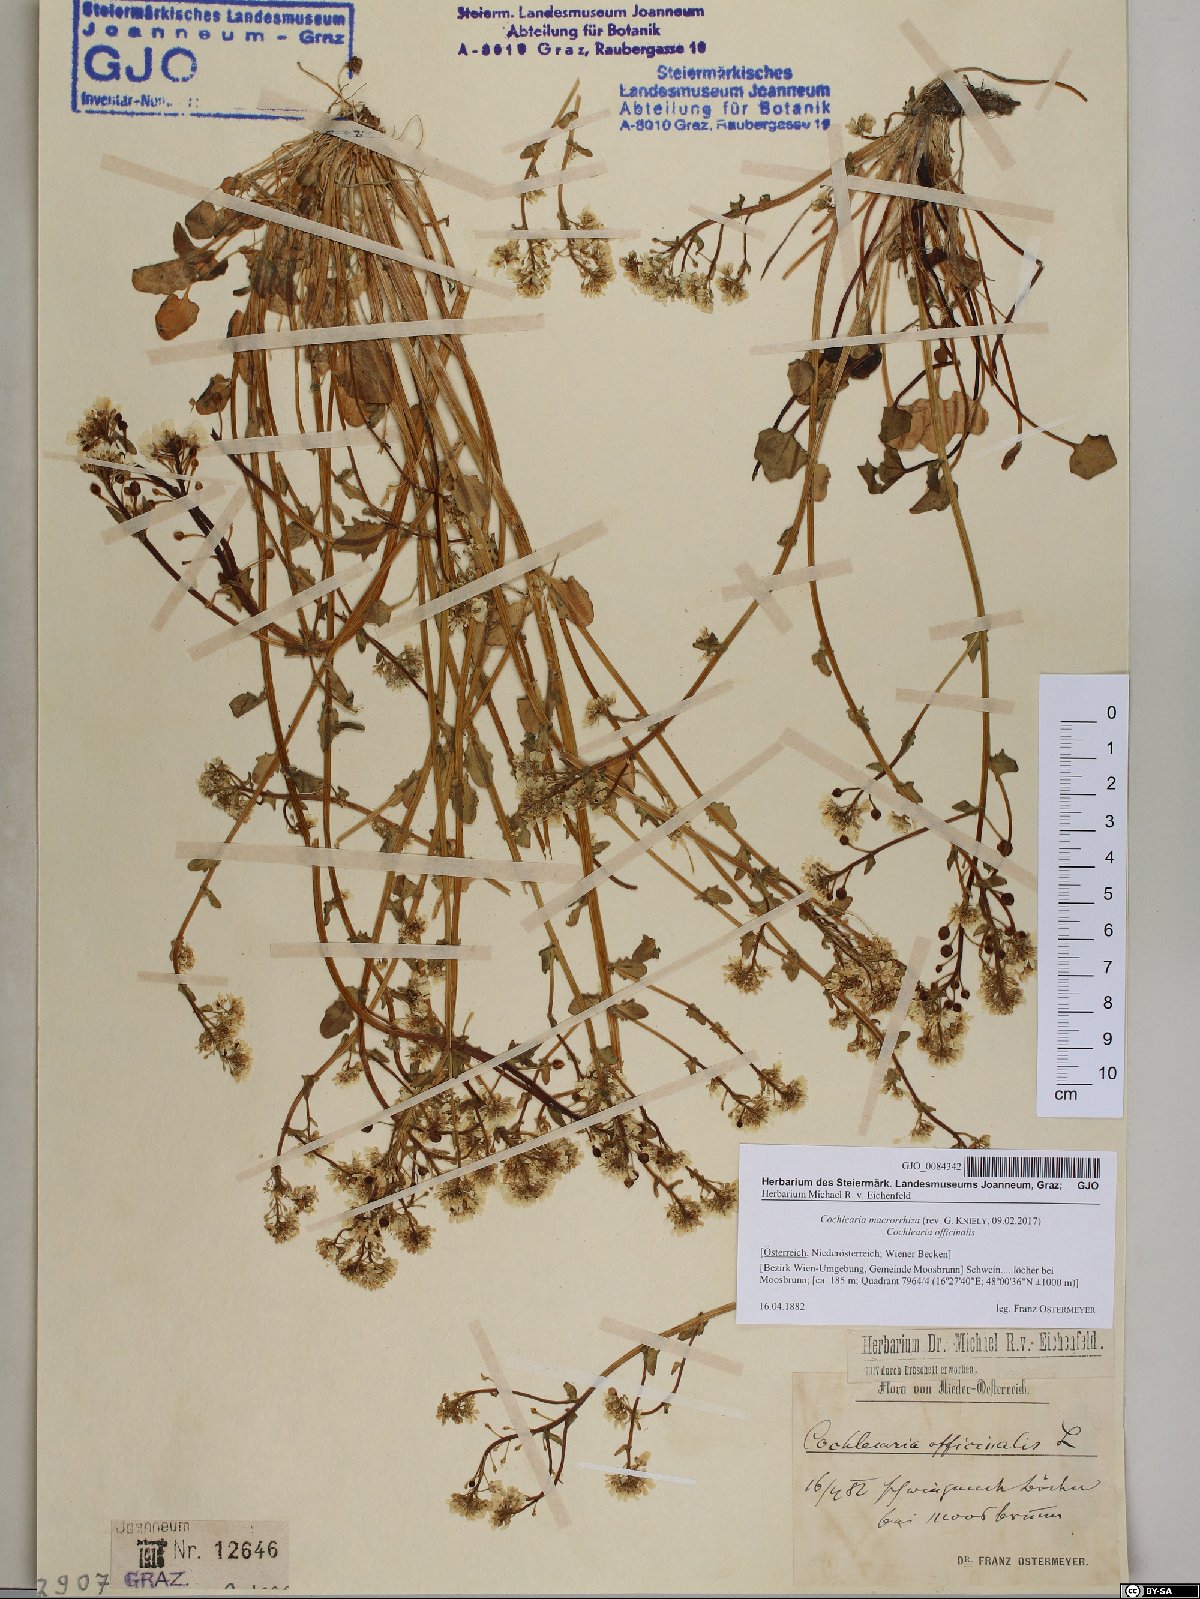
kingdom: Plantae
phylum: Tracheophyta
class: Magnoliopsida
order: Brassicales
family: Brassicaceae
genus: Cochlearia
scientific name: Cochlearia pyrenaica
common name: Upland scurvy-grass
